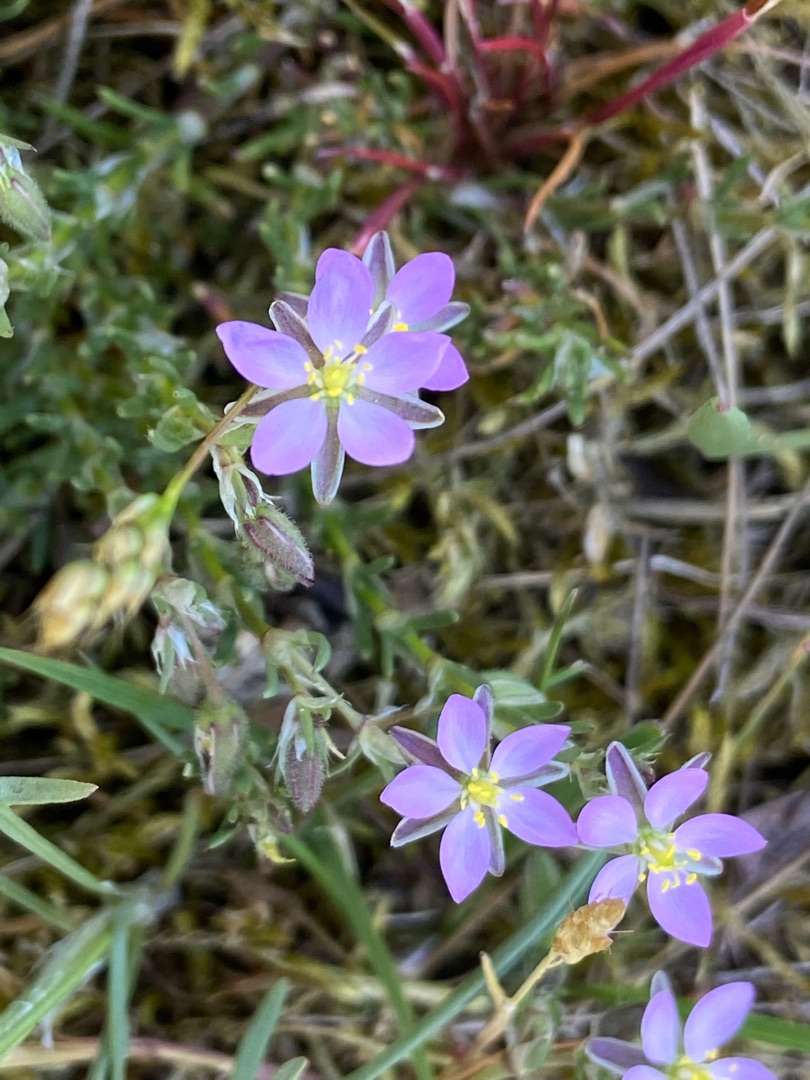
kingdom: Plantae
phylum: Tracheophyta
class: Magnoliopsida
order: Caryophyllales
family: Caryophyllaceae
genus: Spergularia
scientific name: Spergularia rubra
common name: Mark-hindeknæ
